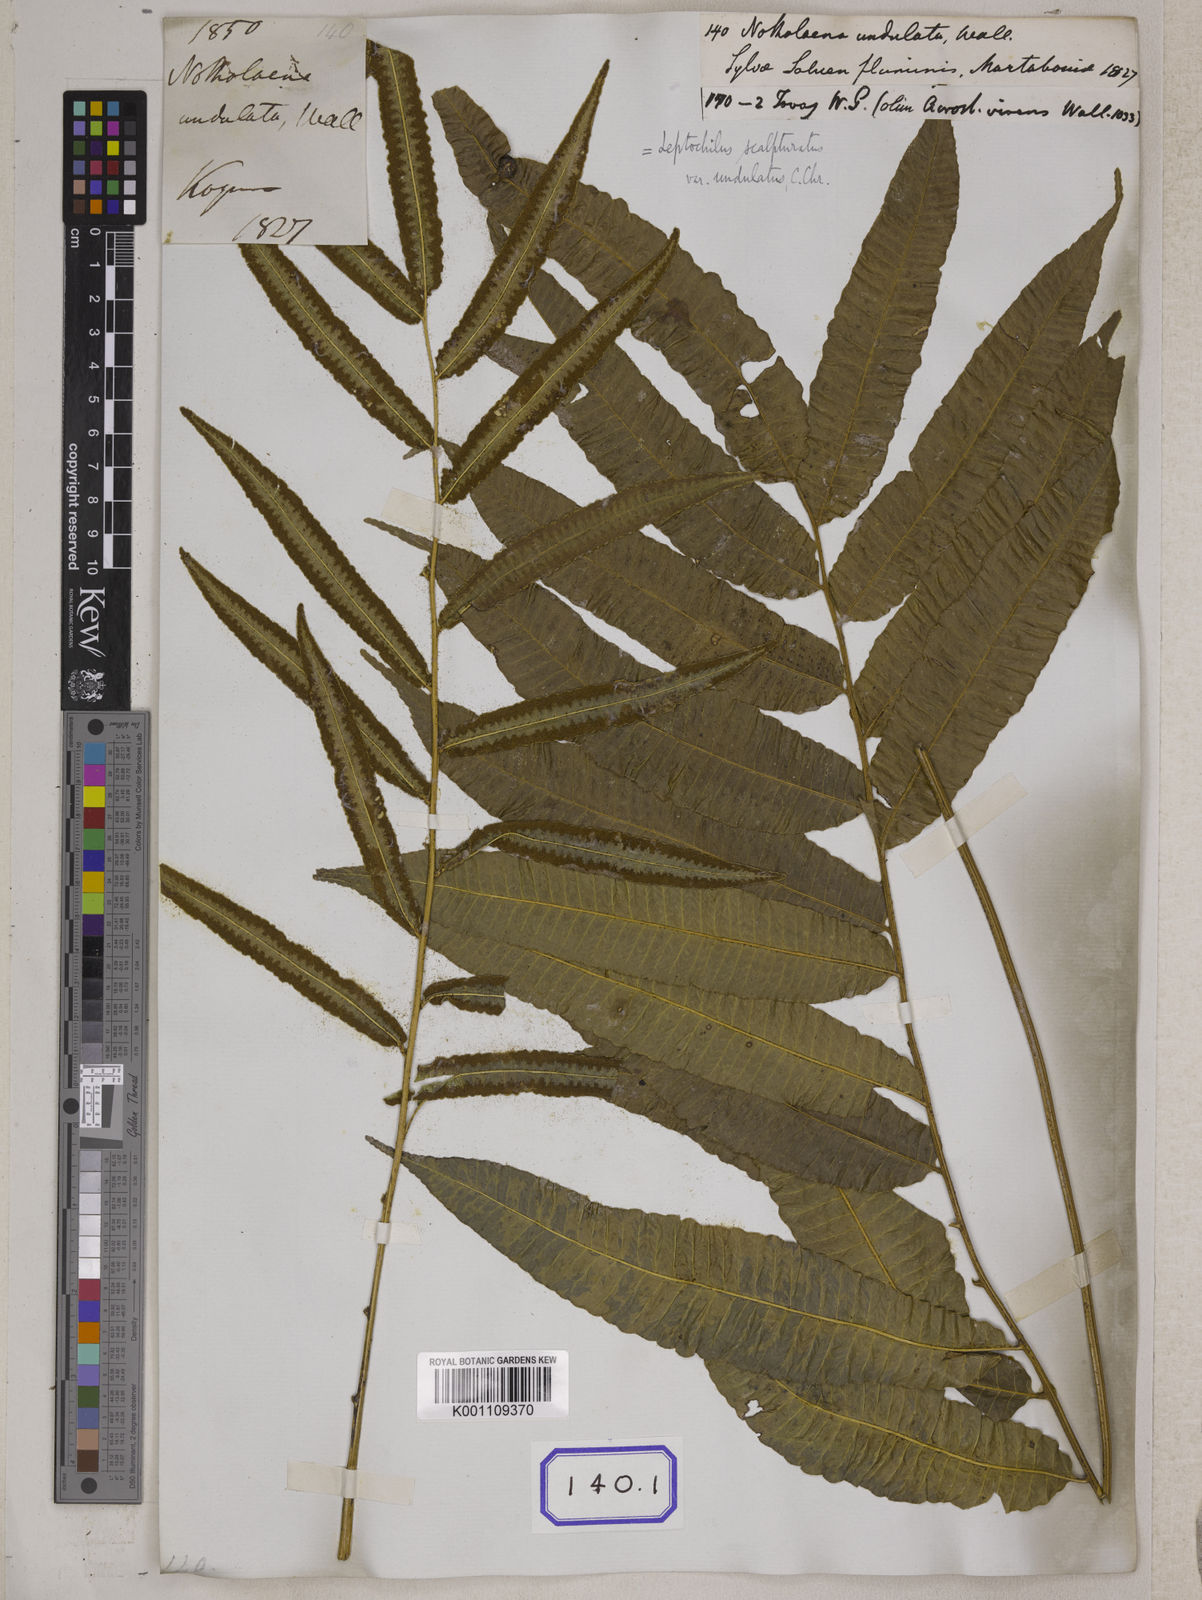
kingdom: Plantae
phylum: Tracheophyta
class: Polypodiopsida
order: Polypodiales
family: Dryopteridaceae
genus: Bolbitis
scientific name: Bolbitis virens
